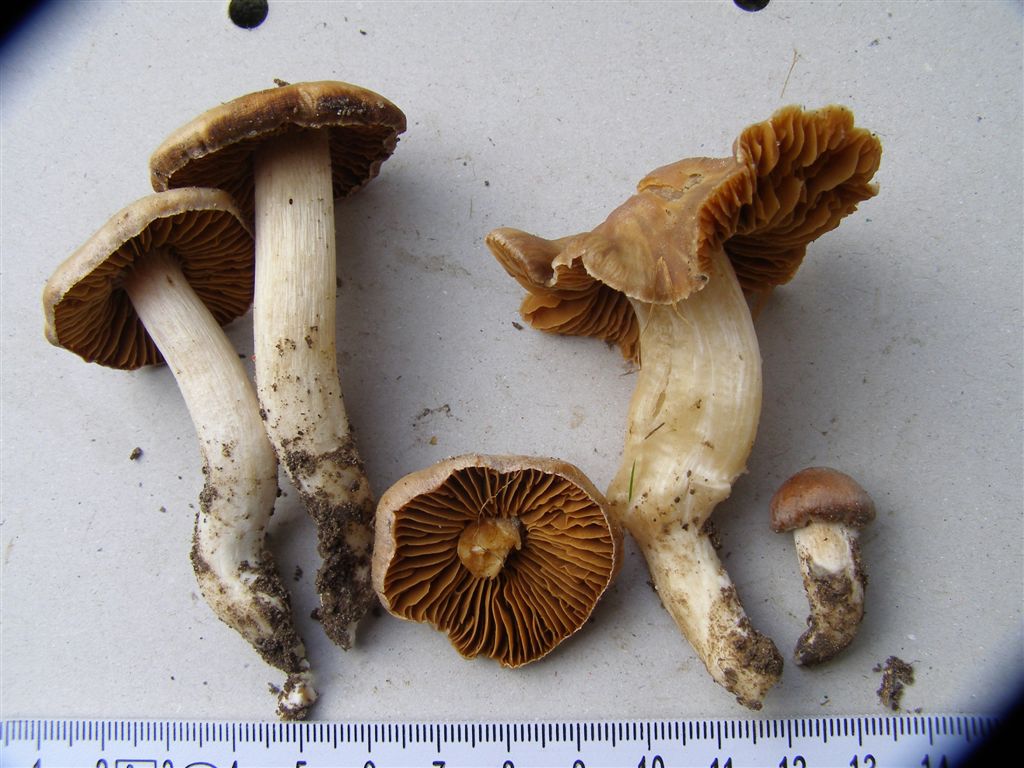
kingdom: Fungi
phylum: Basidiomycota
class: Agaricomycetes
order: Agaricales
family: Cortinariaceae
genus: Cortinarius
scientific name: Cortinarius
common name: jod-slørhat
